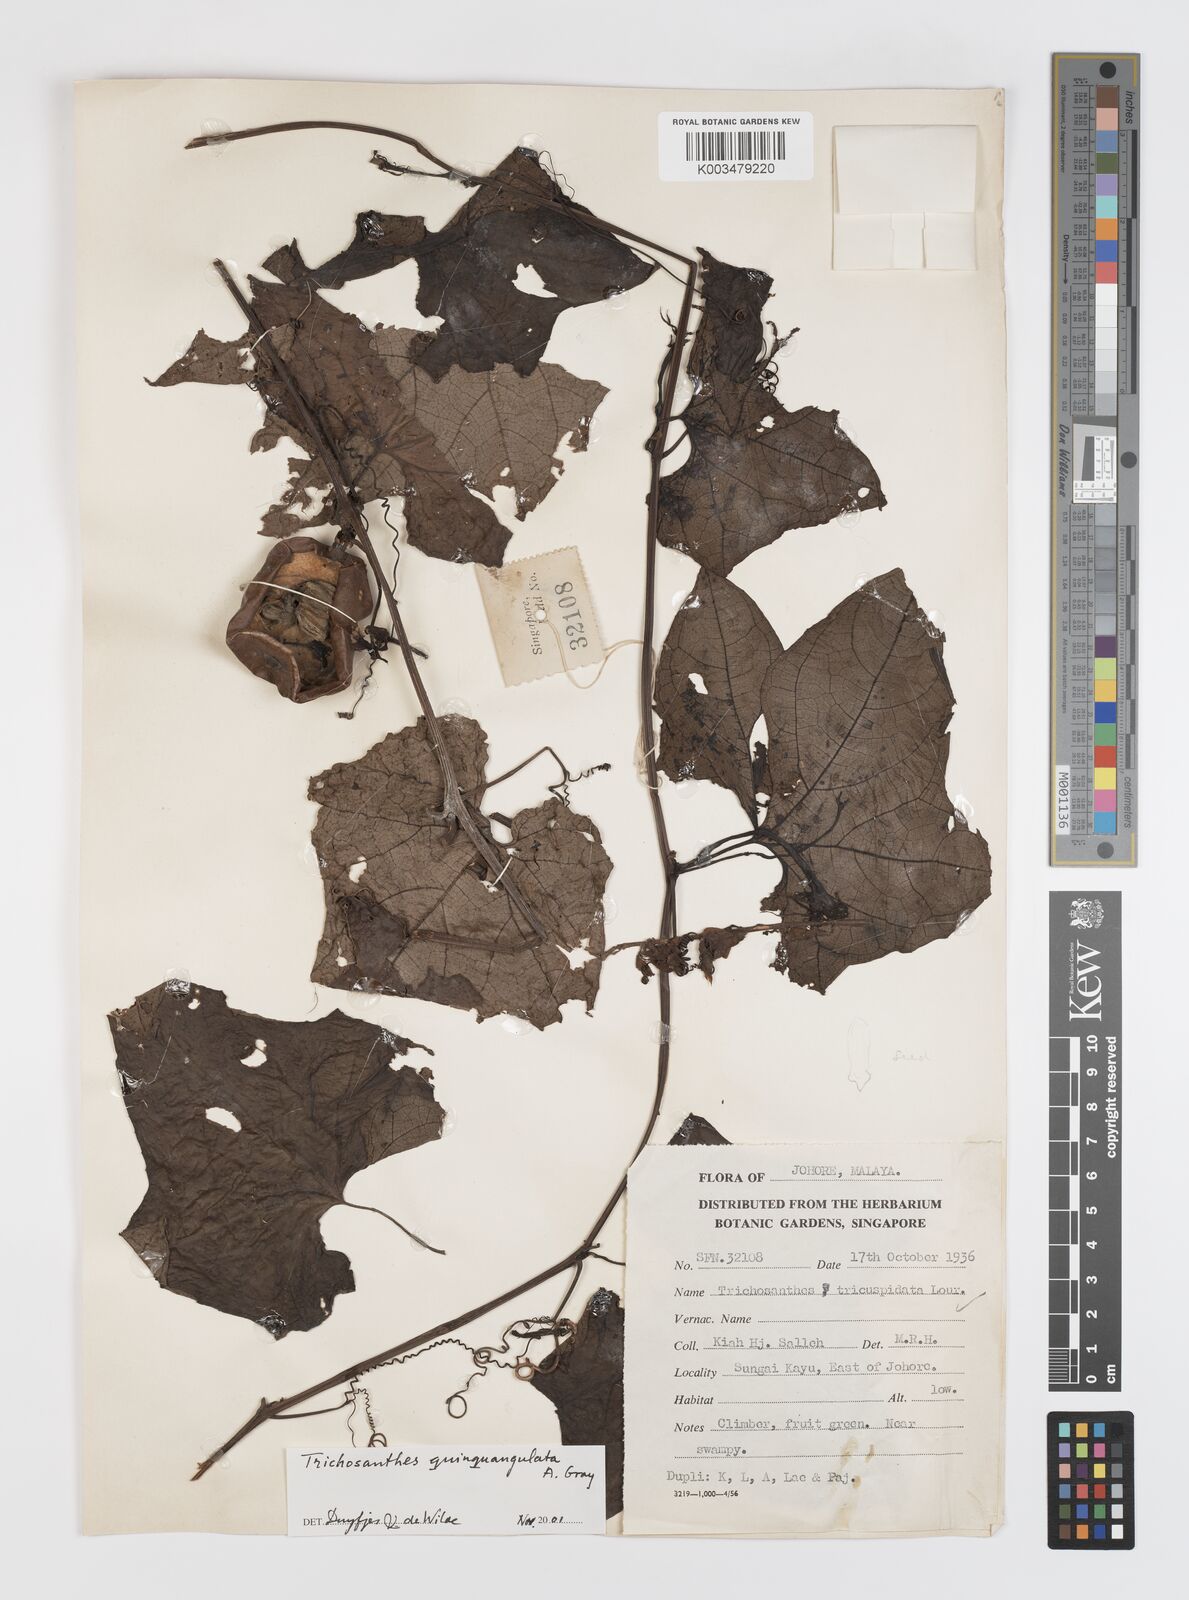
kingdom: Plantae
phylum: Tracheophyta
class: Magnoliopsida
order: Cucurbitales
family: Cucurbitaceae
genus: Trichosanthes
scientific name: Trichosanthes quinquangulata
